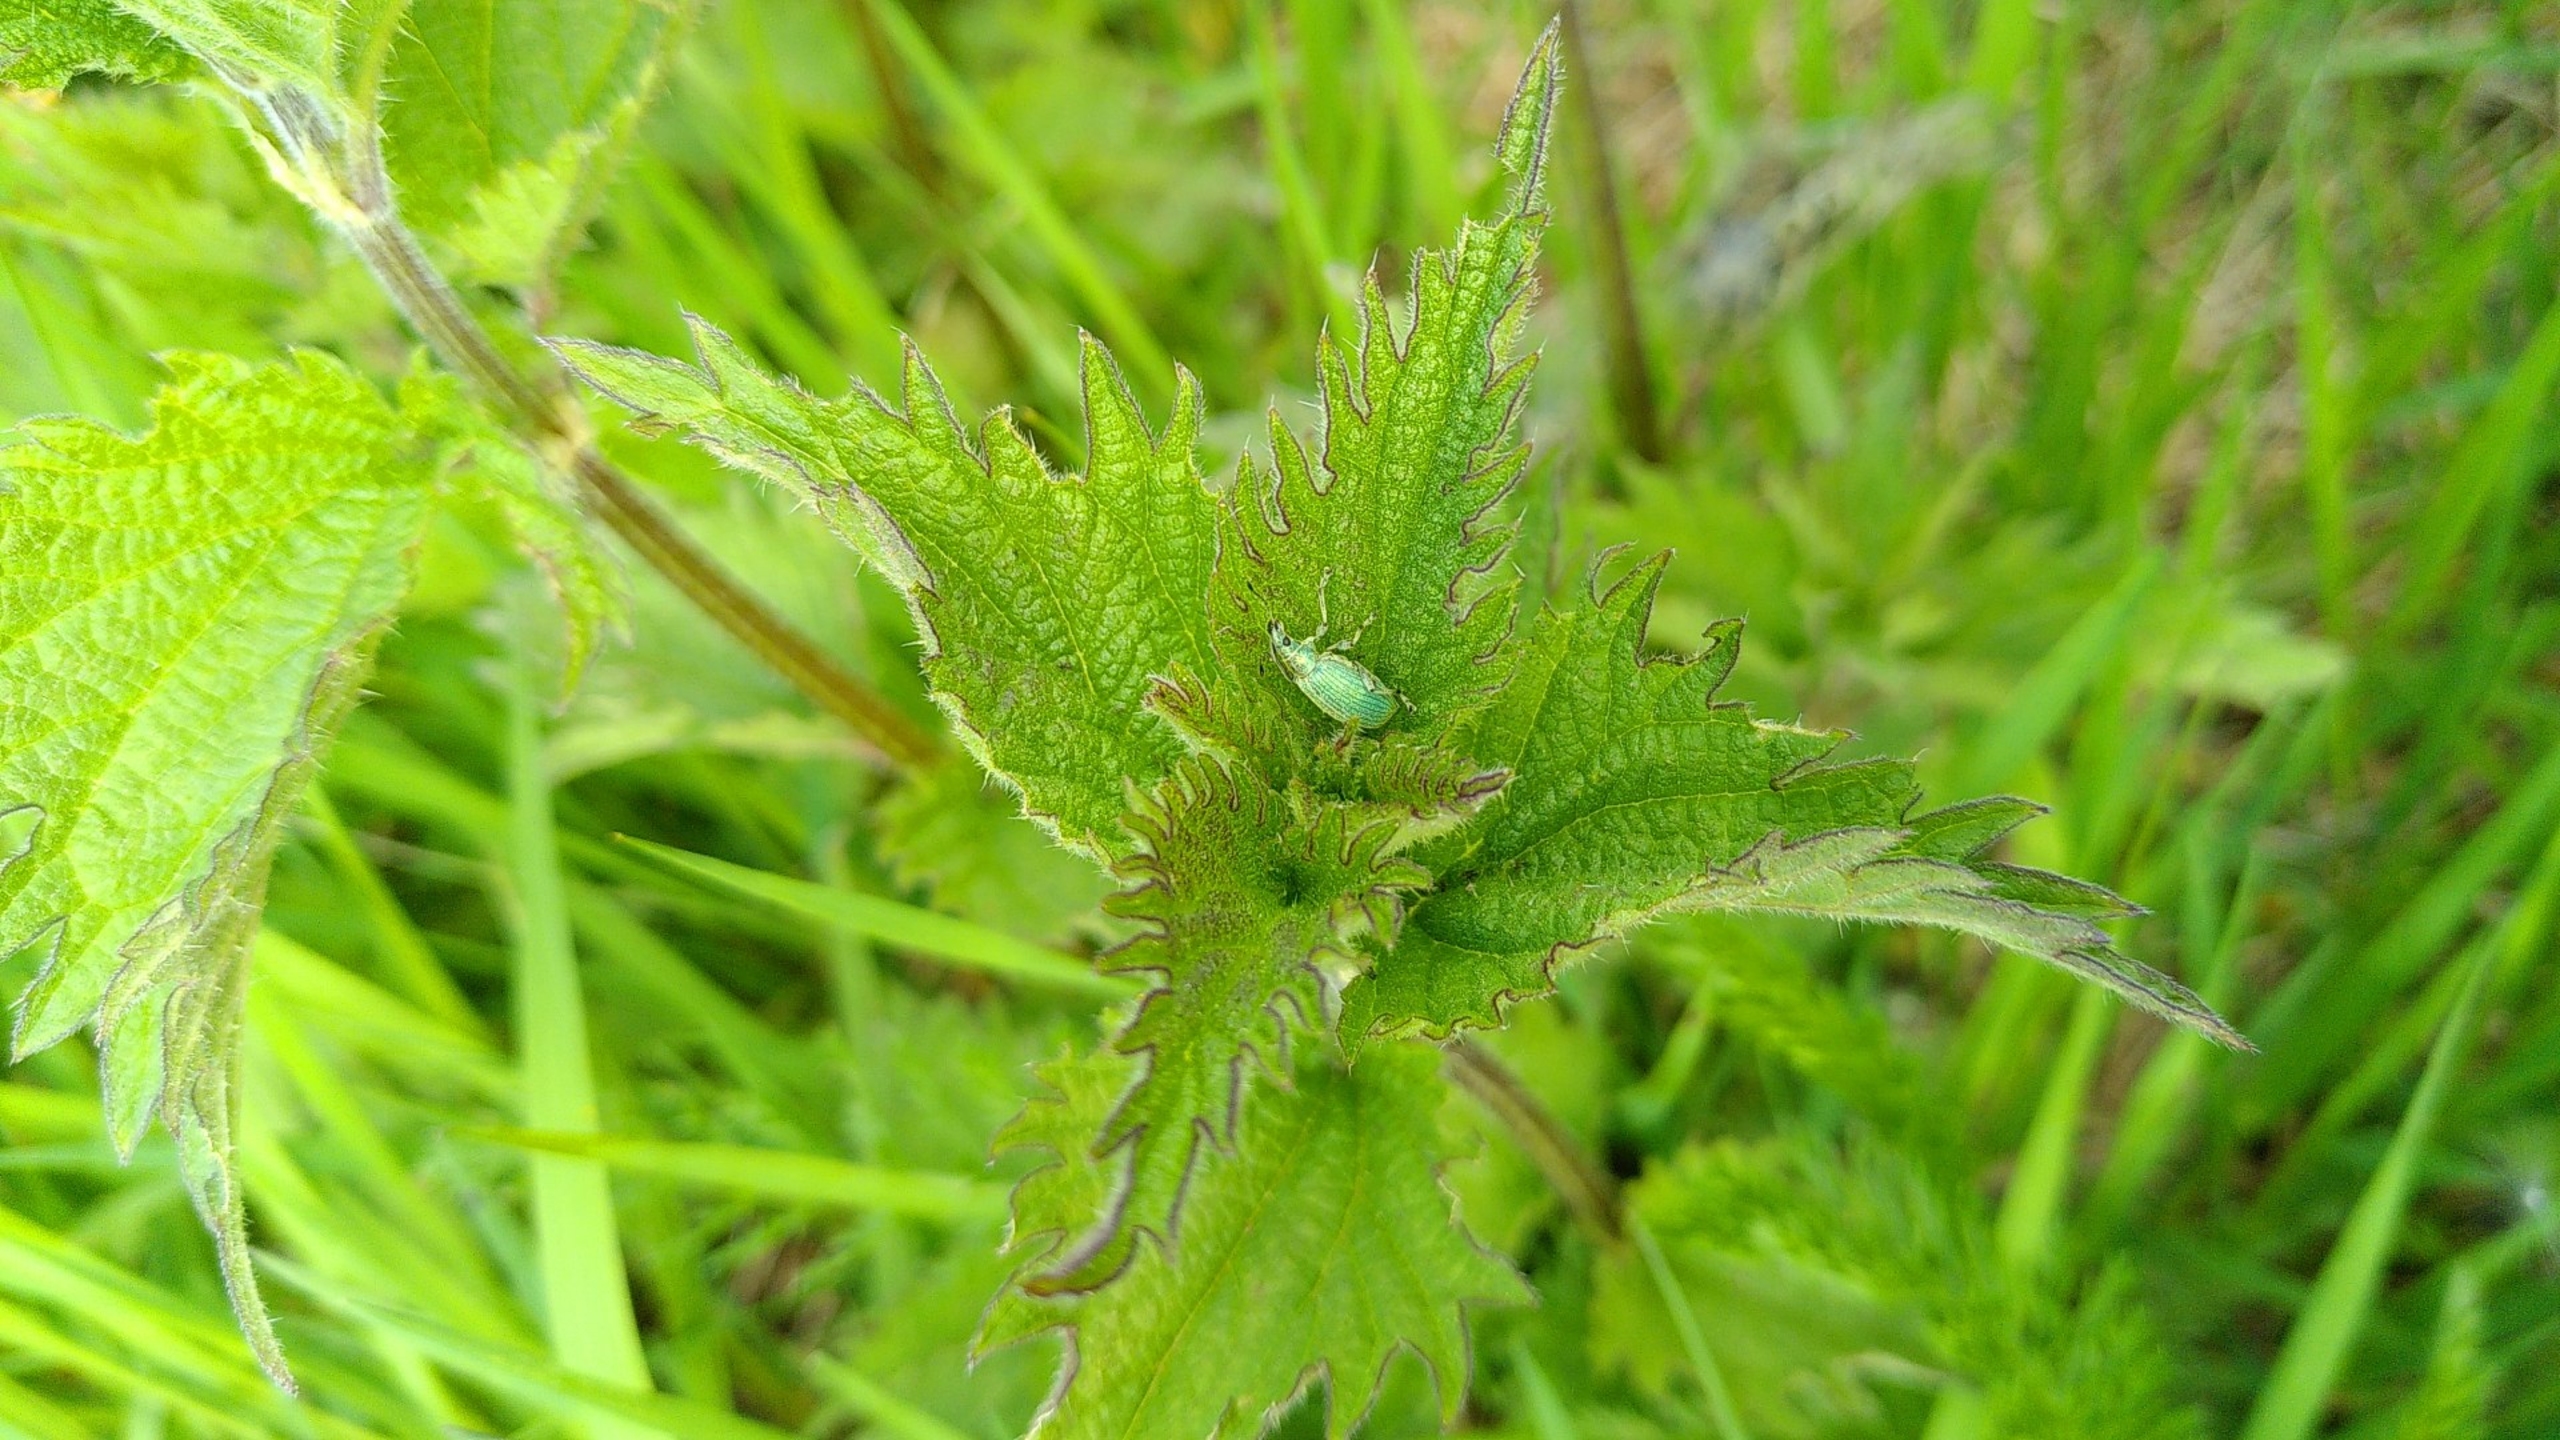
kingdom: Animalia
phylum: Arthropoda
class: Insecta
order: Coleoptera
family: Curculionidae
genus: Phyllobius
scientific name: Phyllobius pomaceus
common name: Nældesnudebille
